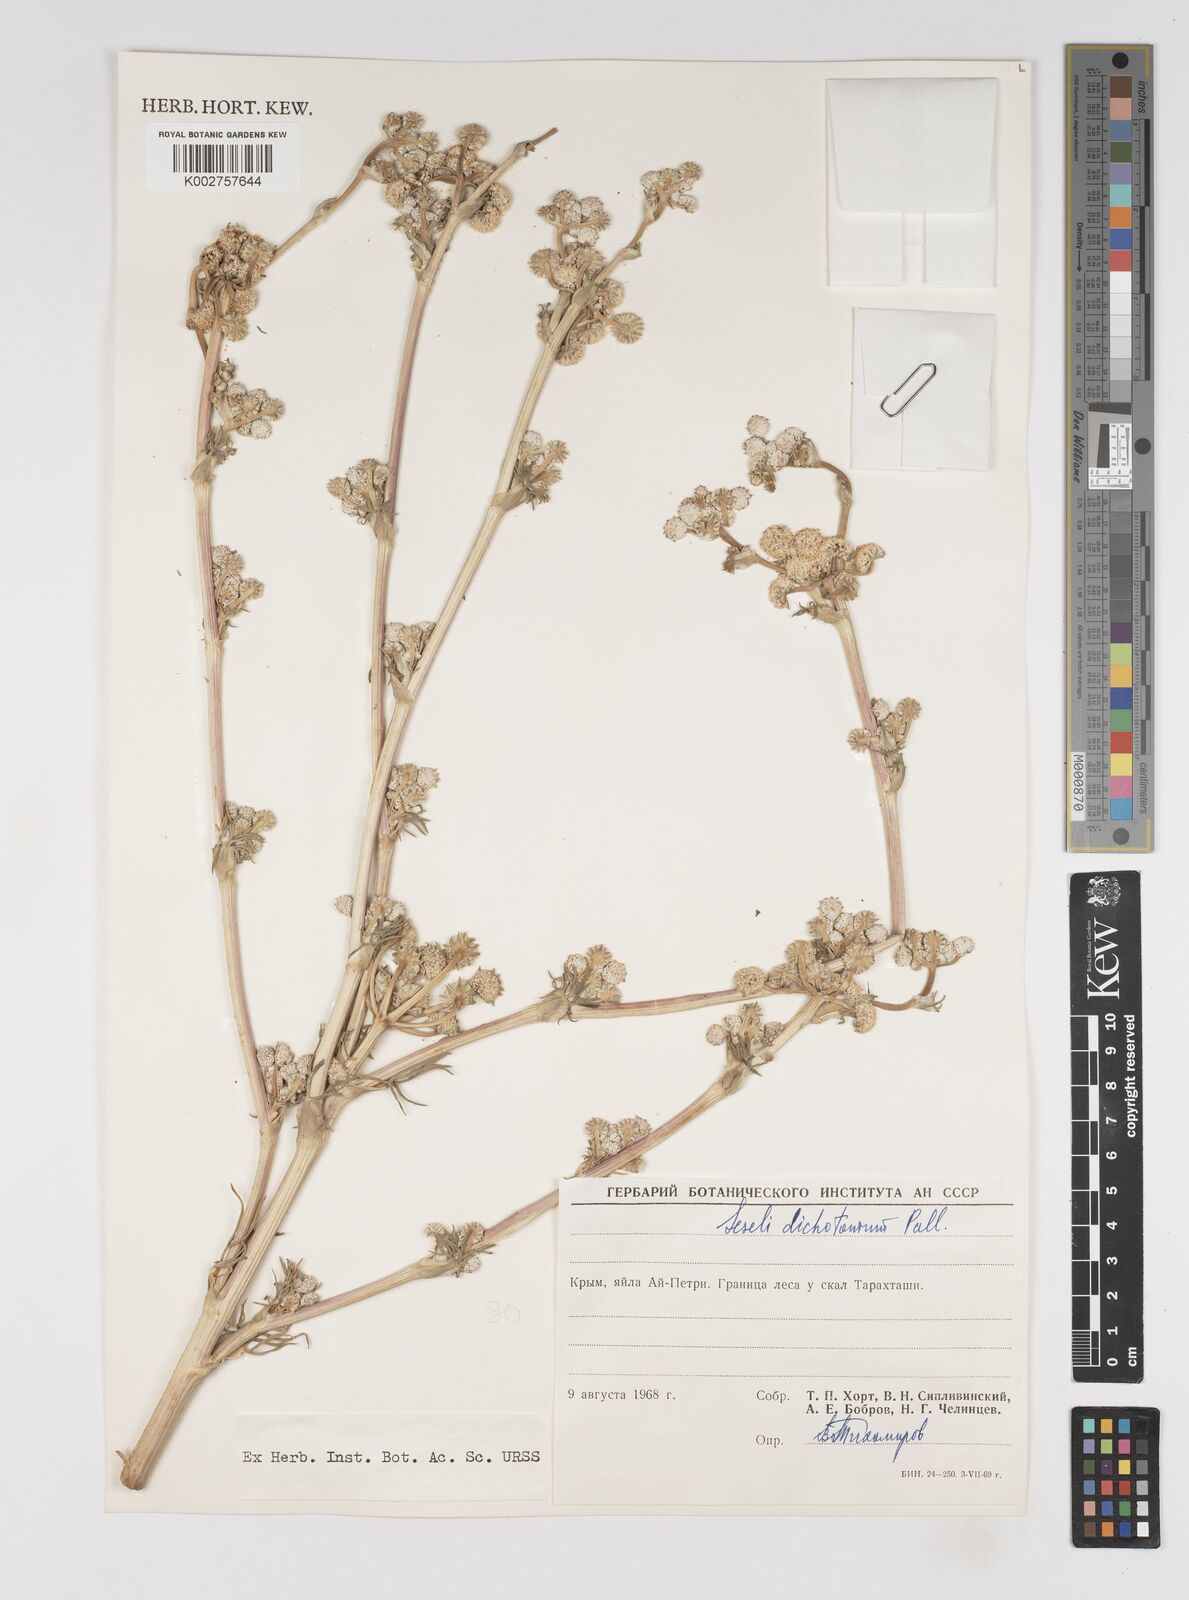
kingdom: Plantae
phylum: Tracheophyta
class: Magnoliopsida
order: Apiales
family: Apiaceae
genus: Hippomarathrum
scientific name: Hippomarathrum dichotomum
